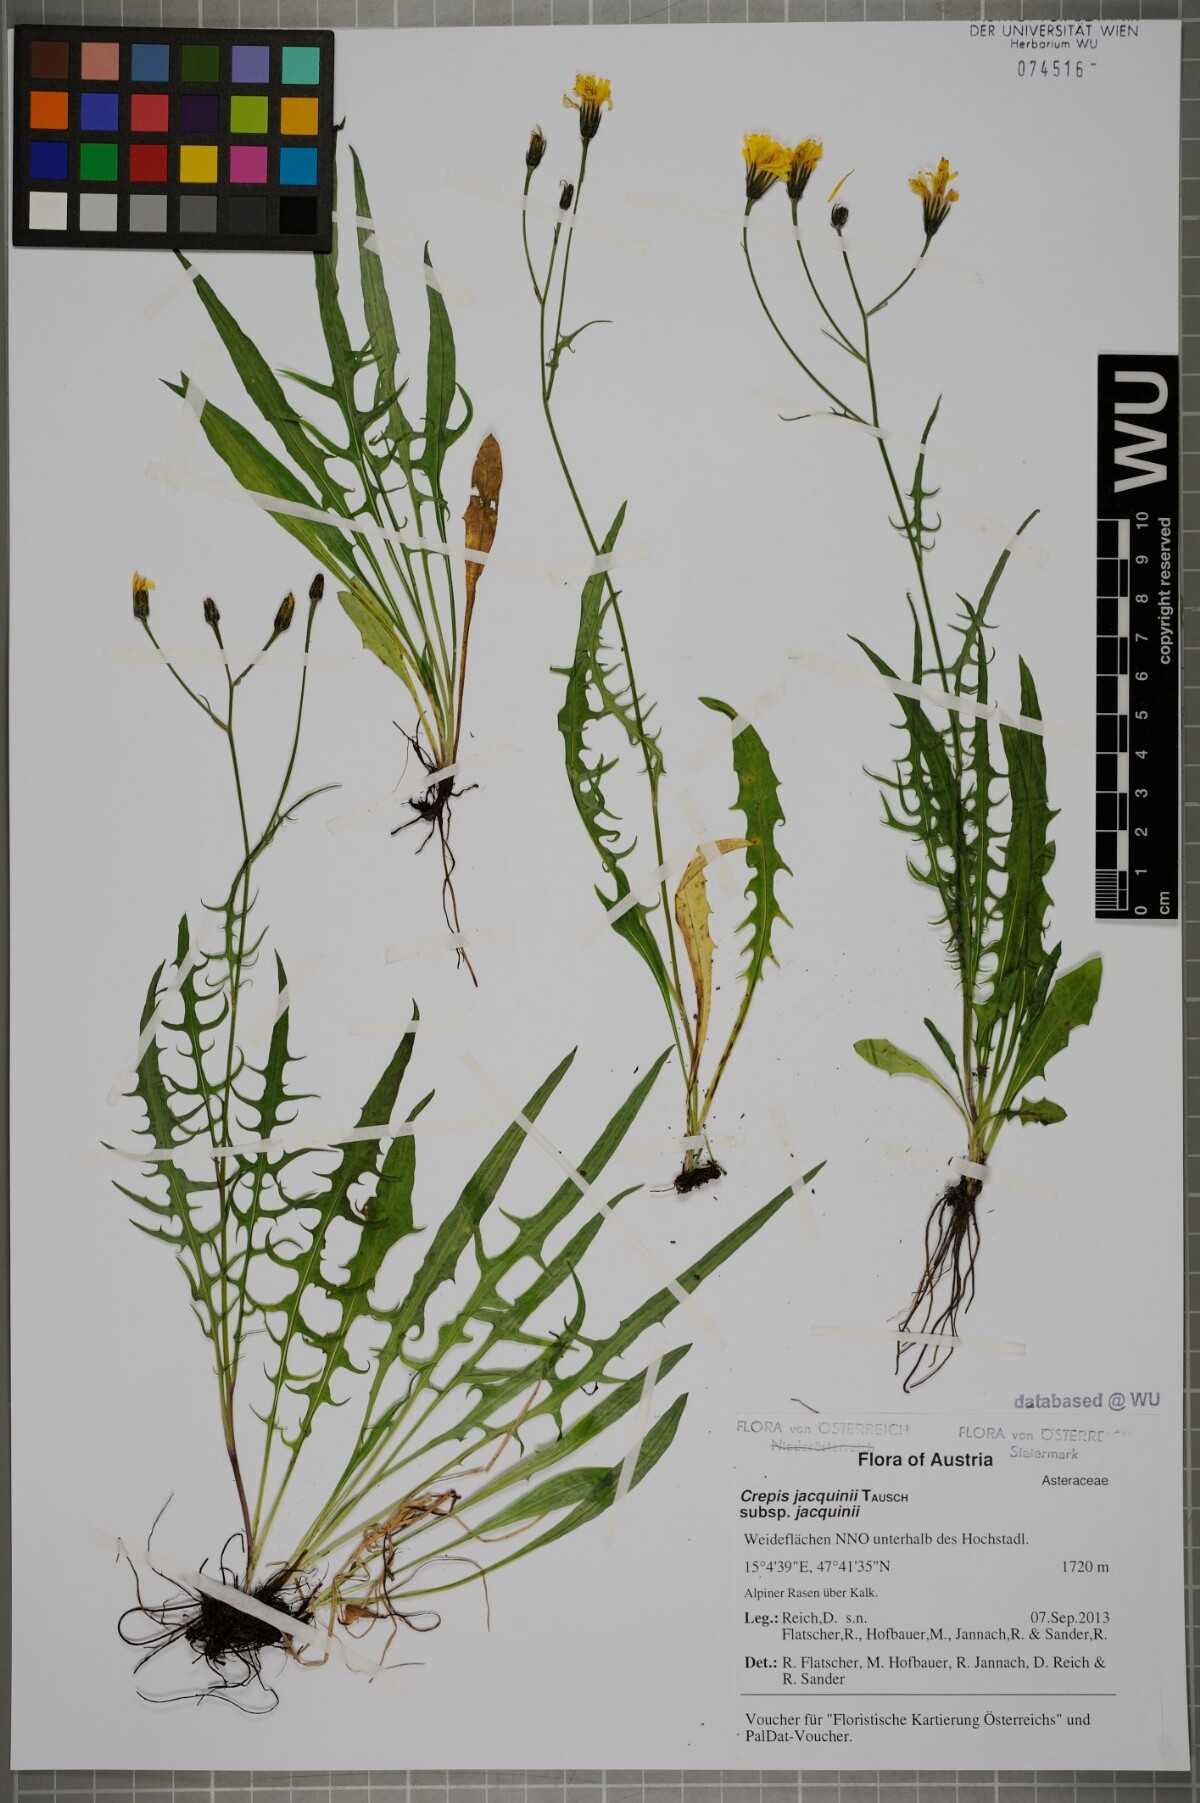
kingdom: Plantae
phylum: Tracheophyta
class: Magnoliopsida
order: Asterales
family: Asteraceae
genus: Crepis
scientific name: Crepis jacquinii
